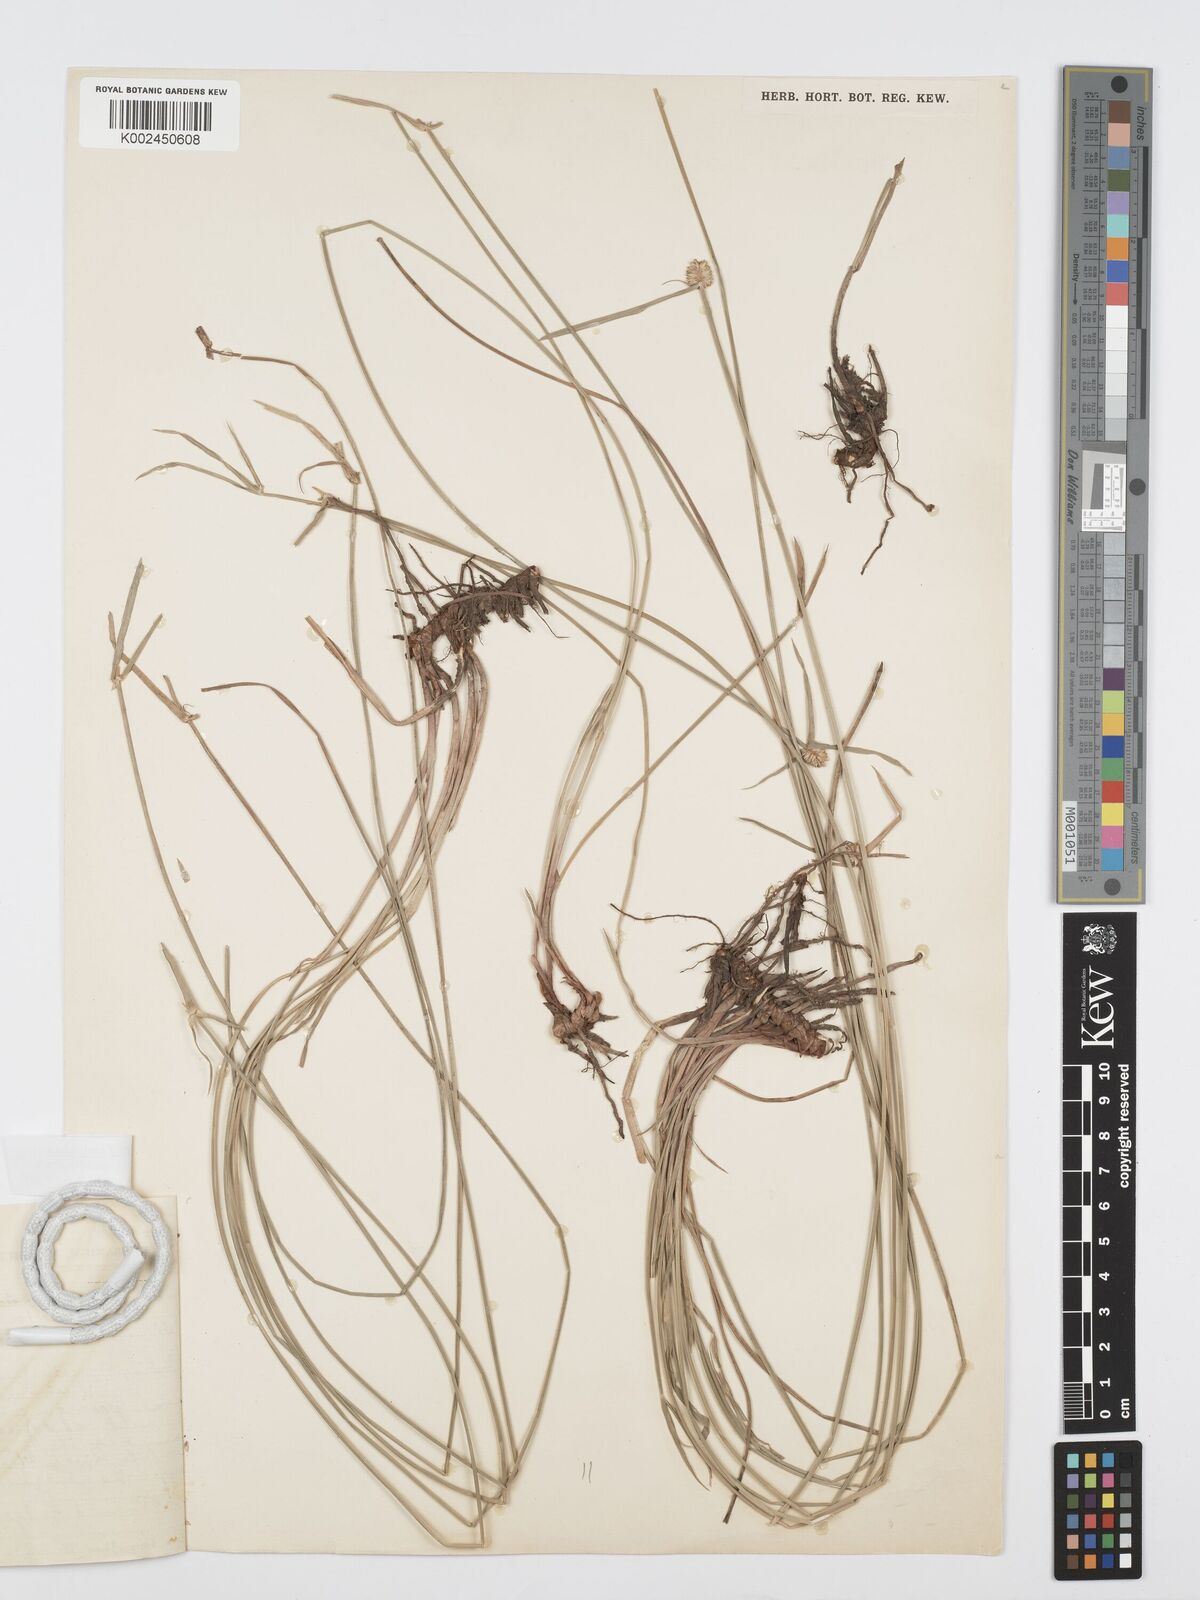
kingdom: Plantae
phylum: Tracheophyta
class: Liliopsida
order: Poales
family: Cyperaceae
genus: Cyperus
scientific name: Cyperus erectus
